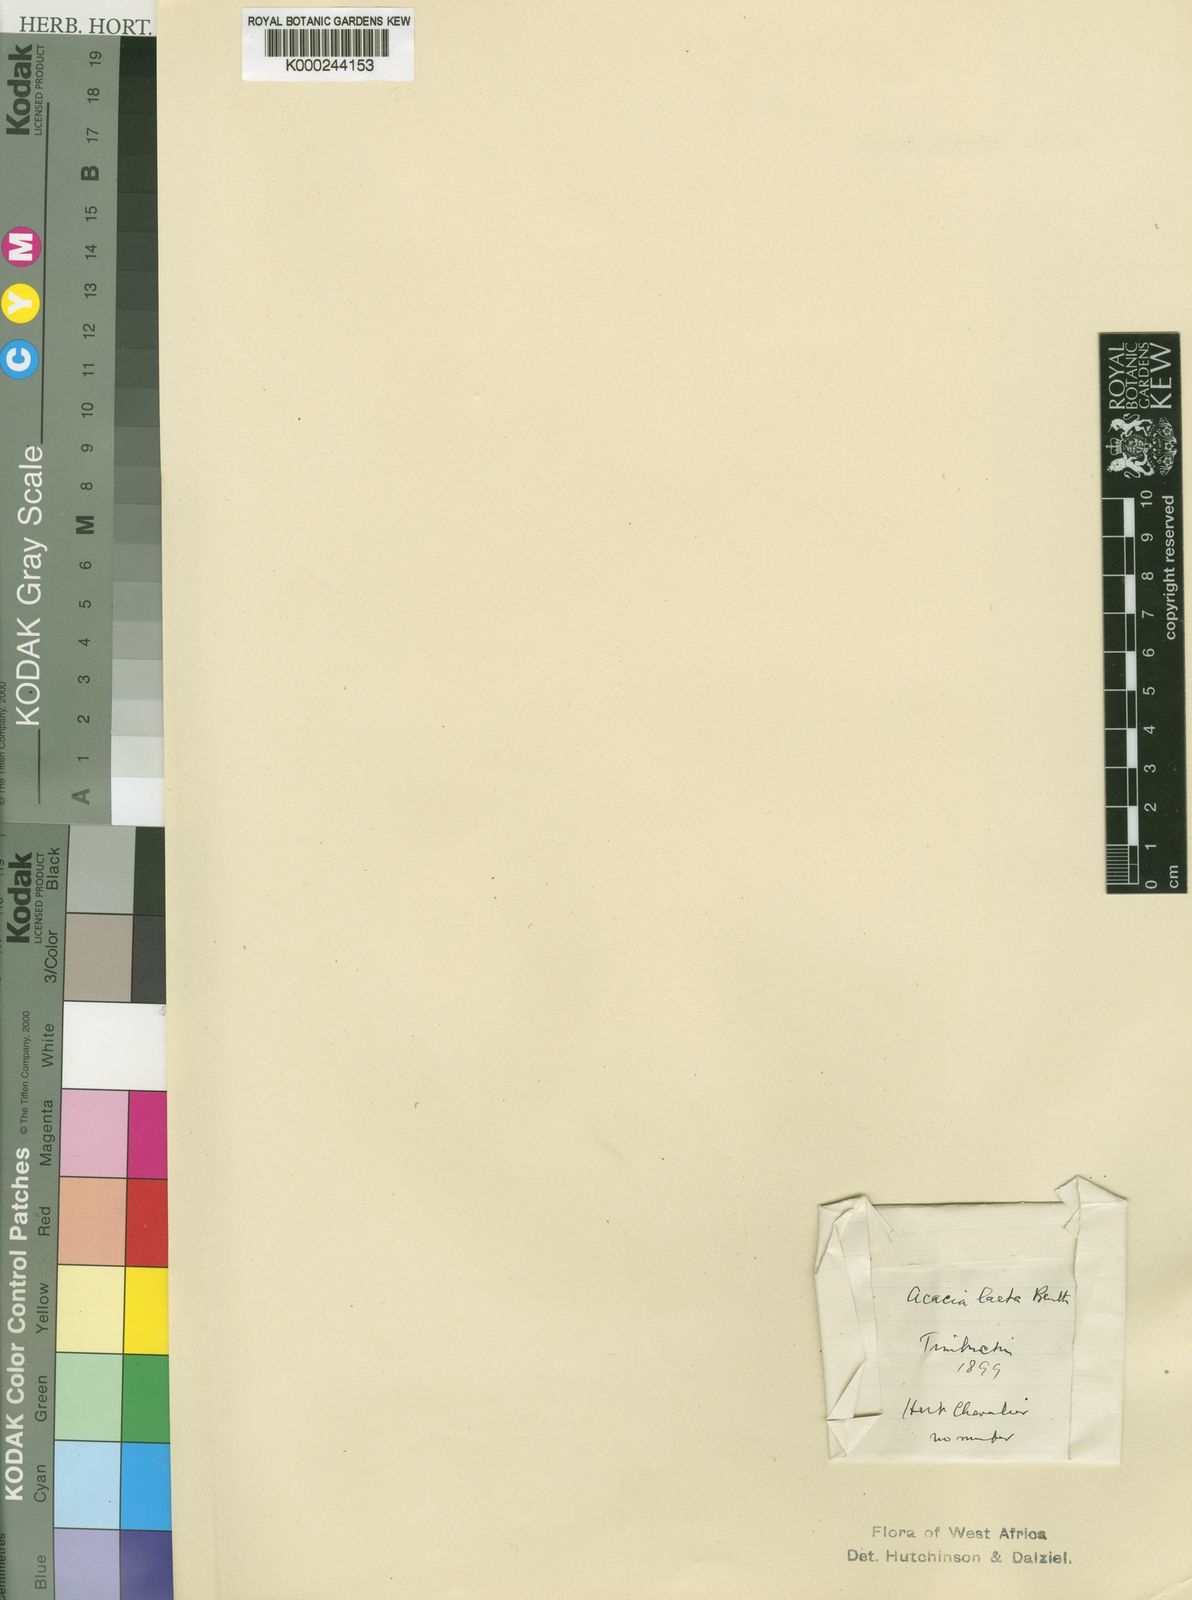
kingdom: Plantae
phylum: Tracheophyta
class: Magnoliopsida
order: Fabales
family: Fabaceae
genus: Senegalia
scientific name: Senegalia laeta
